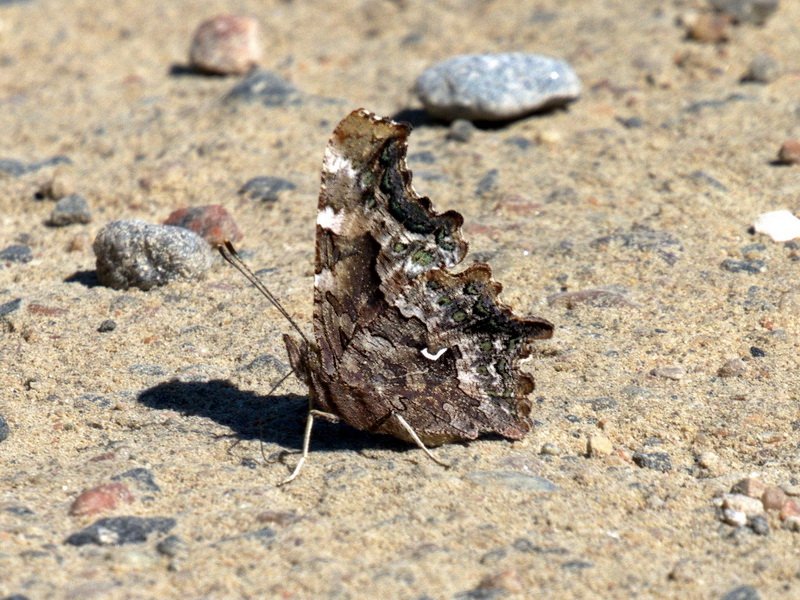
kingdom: Animalia
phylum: Arthropoda
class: Insecta
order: Lepidoptera
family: Nymphalidae
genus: Polygonia
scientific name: Polygonia faunus
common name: Green Comma
